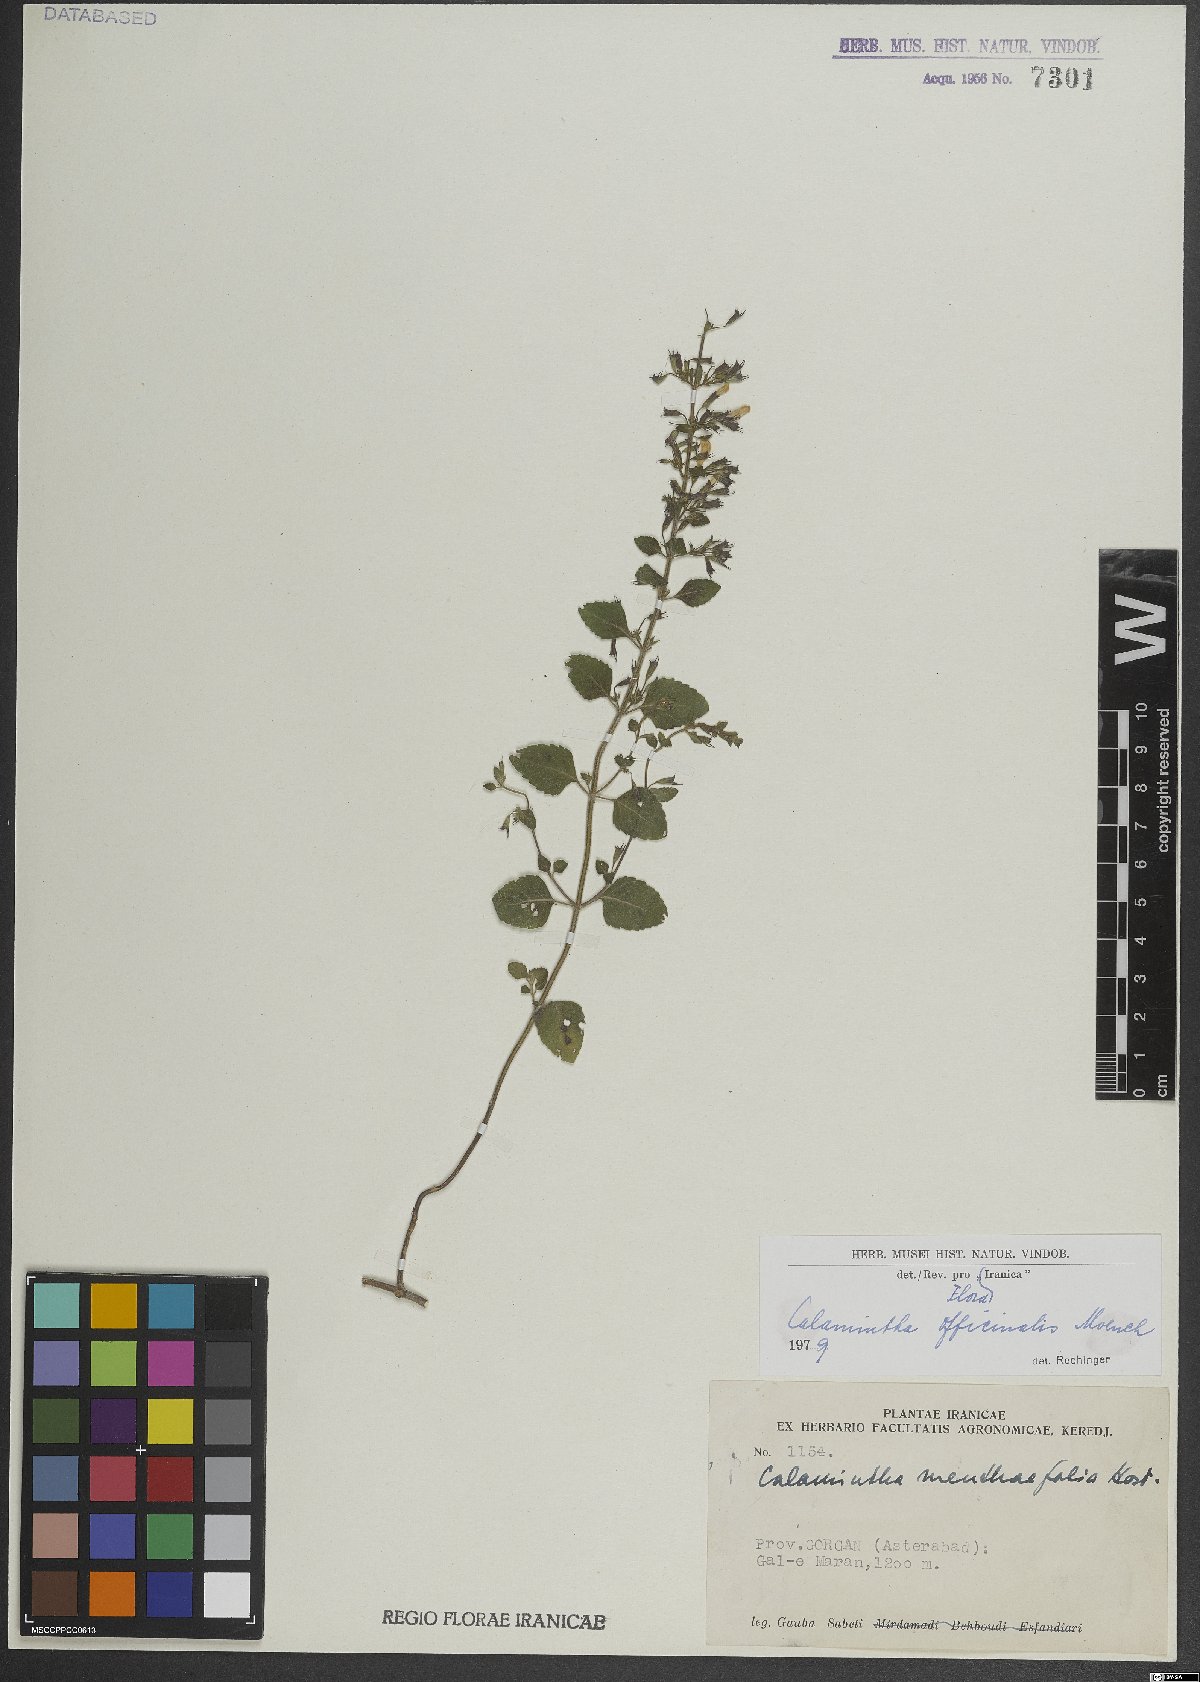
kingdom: Plantae
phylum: Tracheophyta
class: Magnoliopsida
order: Lamiales
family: Lamiaceae
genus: Clinopodium
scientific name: Clinopodium nepeta
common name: Lesser calamint
